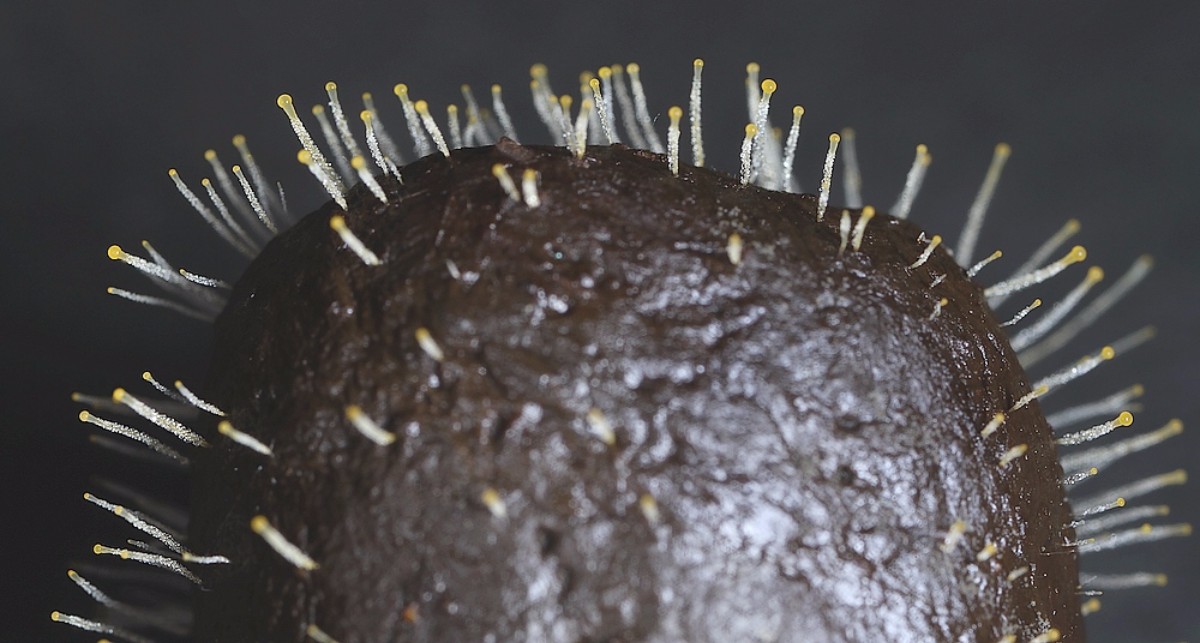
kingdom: Fungi
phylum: Mucoromycota
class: Mucoromycetes
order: Mucorales
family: Pilobolaceae
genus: Pilobolus
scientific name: Pilobolus
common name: boldkaster
